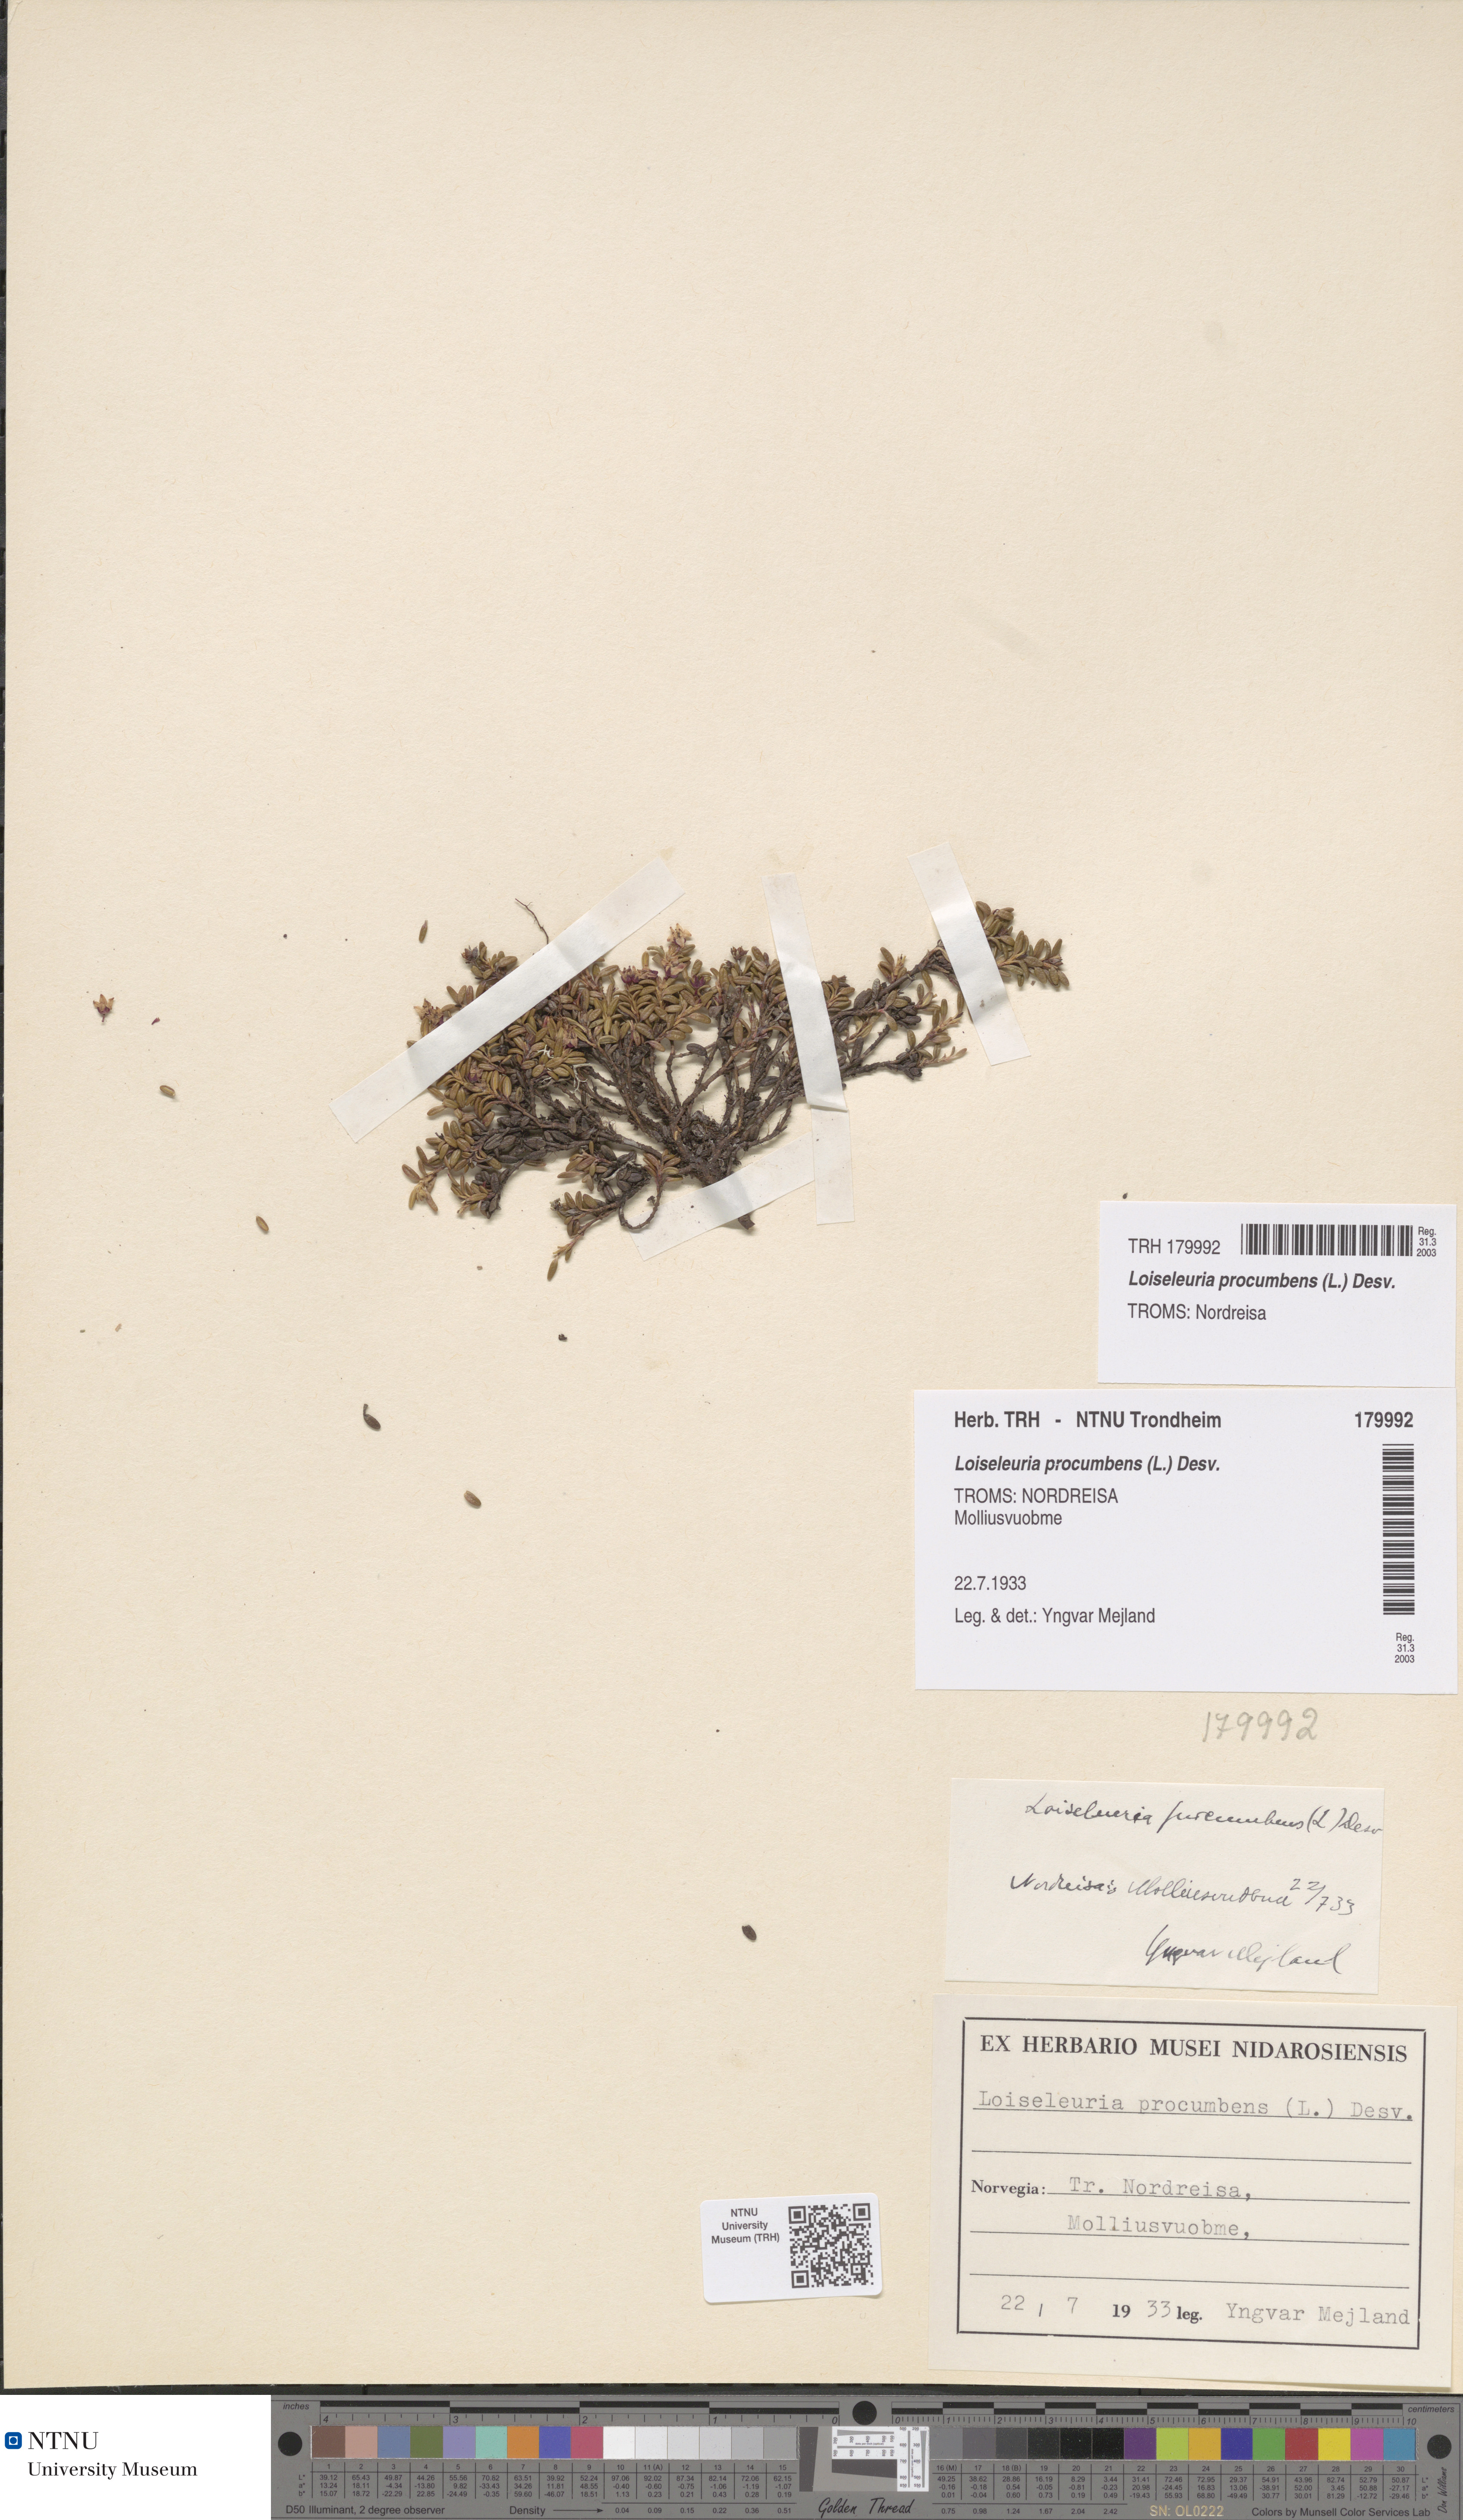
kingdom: Plantae
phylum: Tracheophyta
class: Magnoliopsida
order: Ericales
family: Ericaceae
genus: Kalmia
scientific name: Kalmia procumbens
